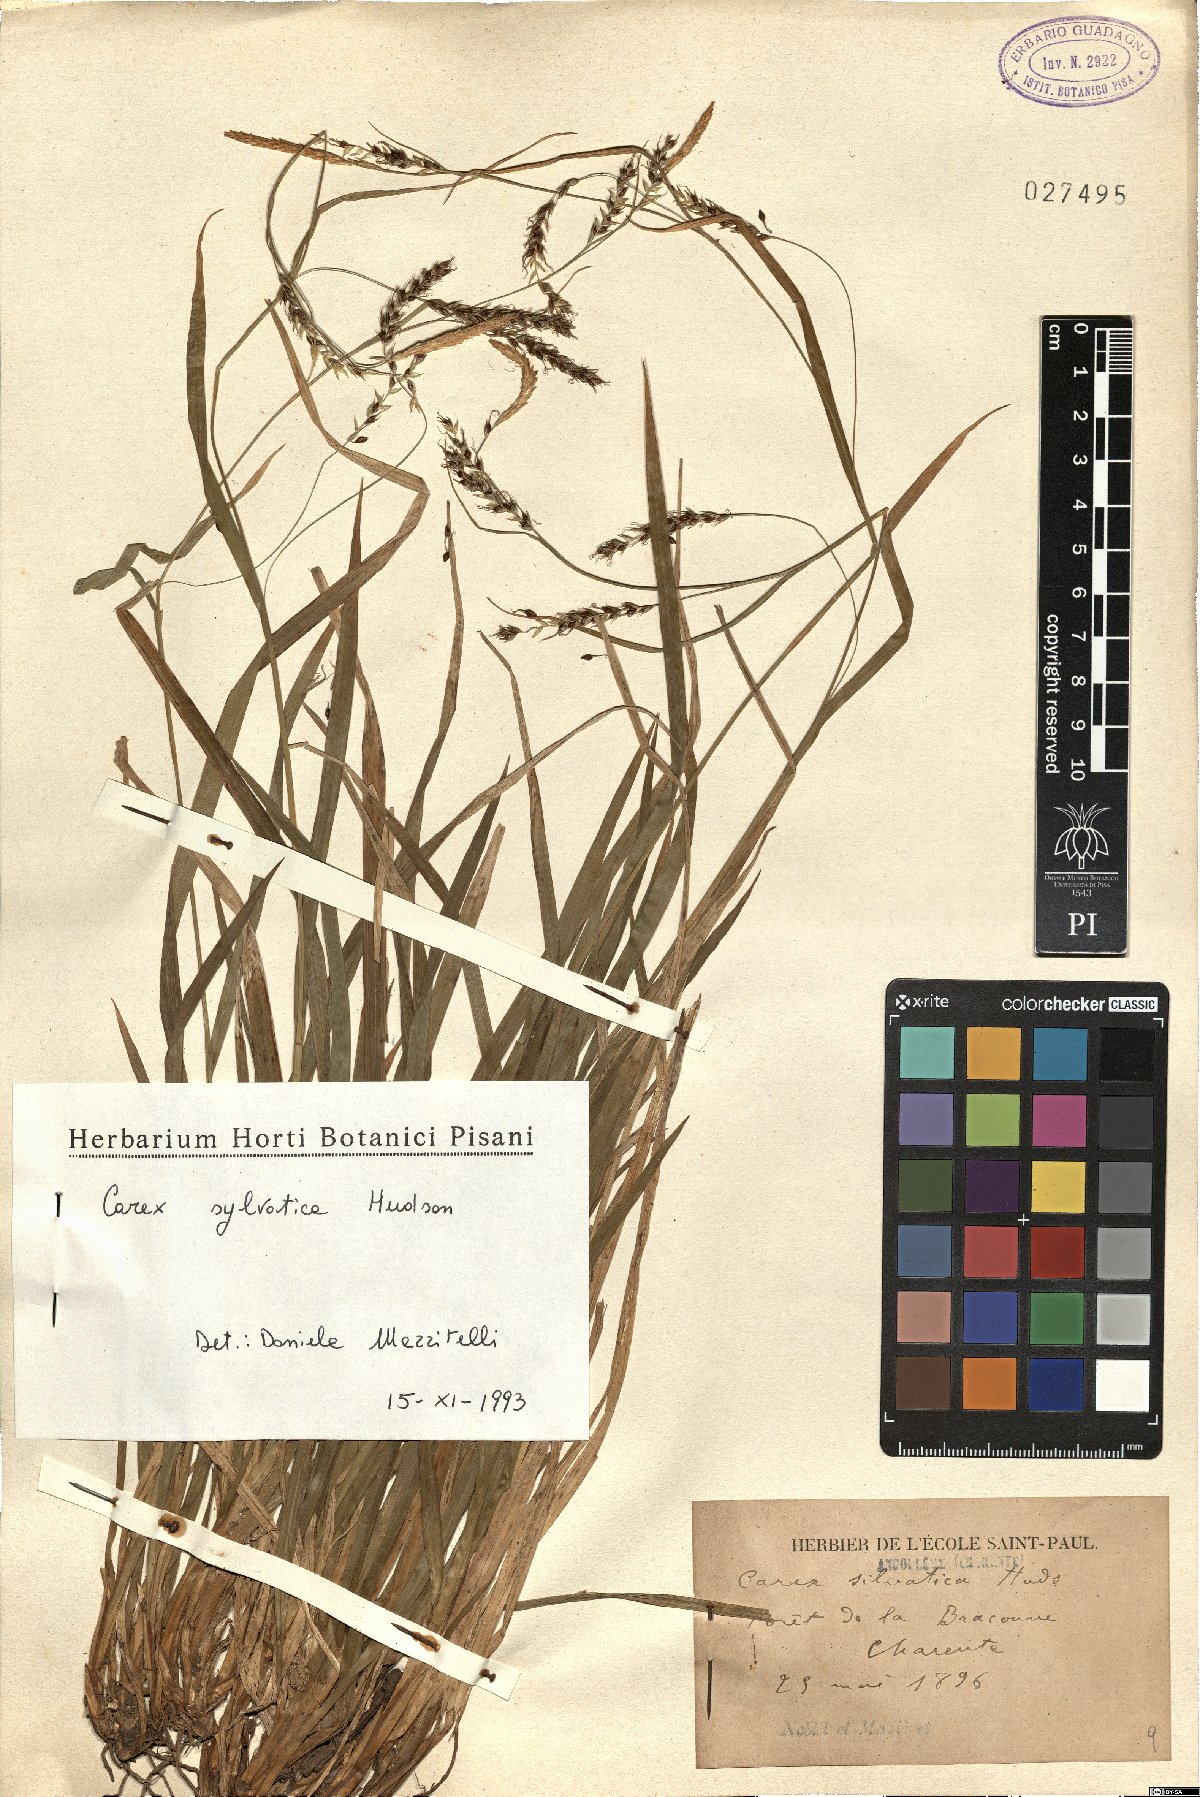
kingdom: Plantae
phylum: Tracheophyta
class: Liliopsida
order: Poales
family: Cyperaceae
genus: Carex
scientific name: Carex sylvatica
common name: Wood-sedge
